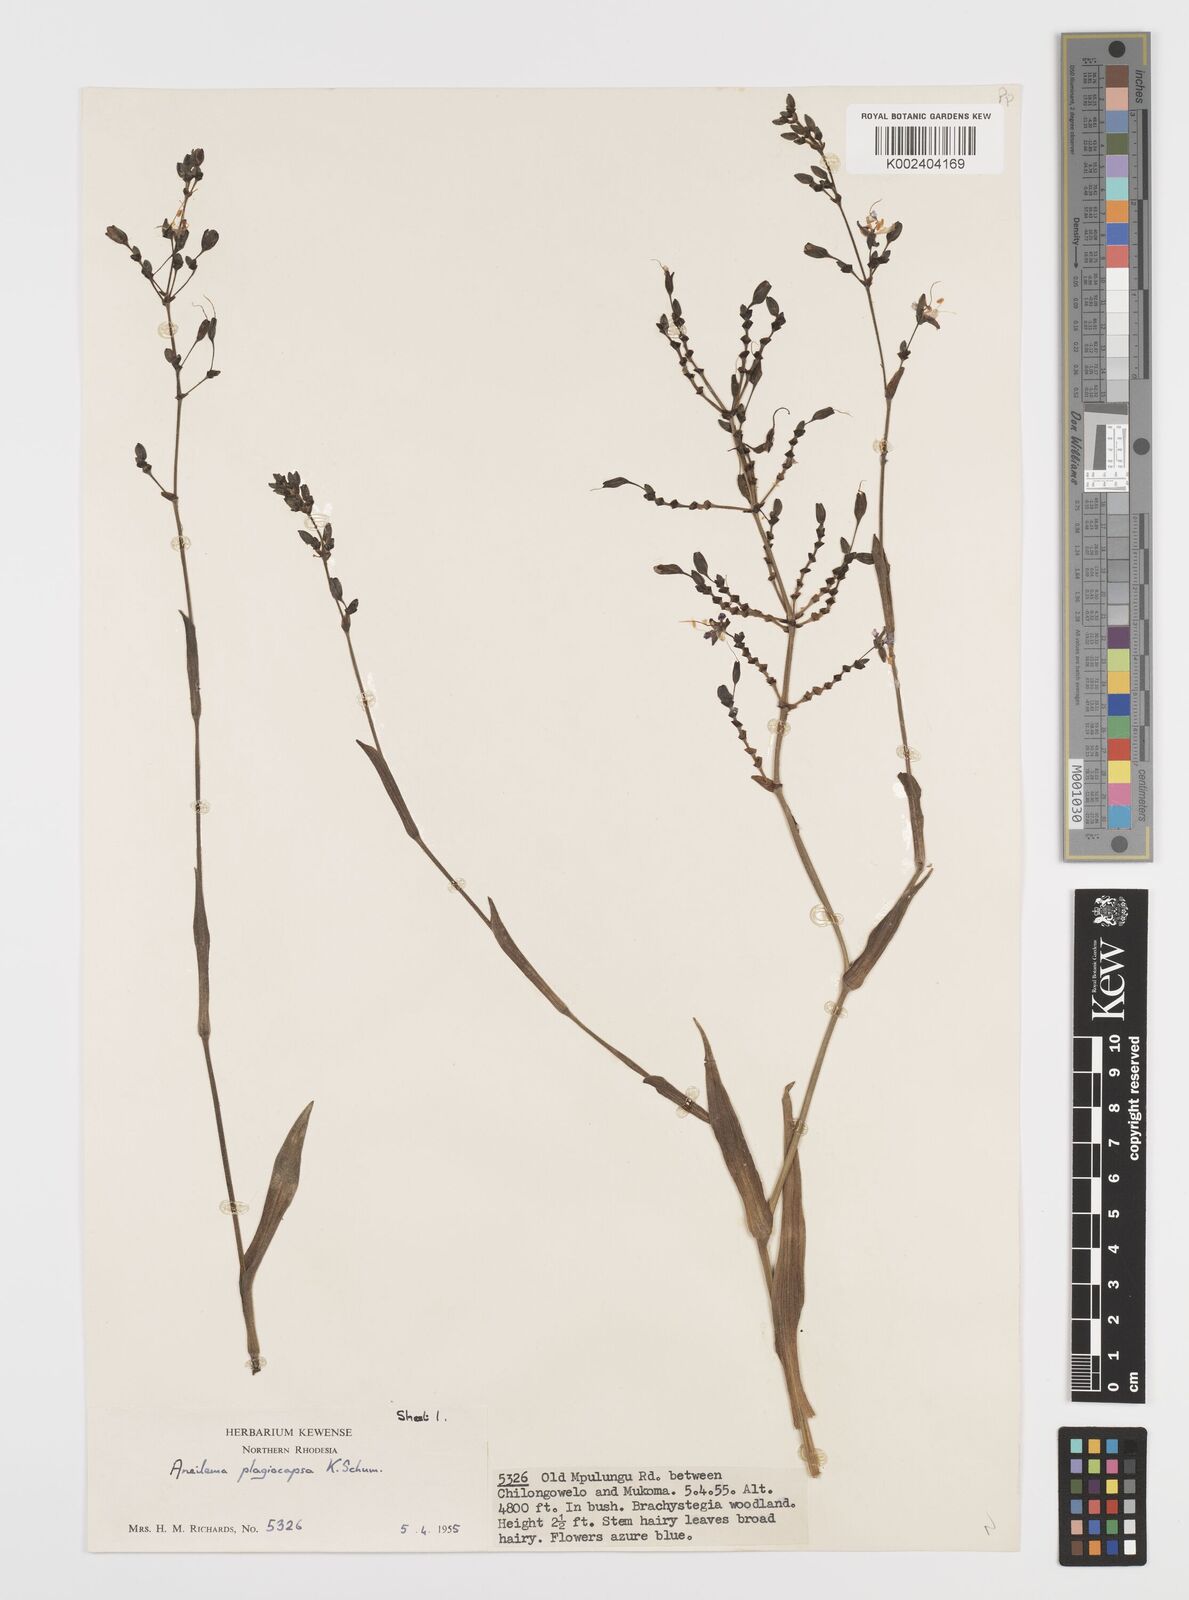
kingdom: Plantae
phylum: Tracheophyta
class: Liliopsida
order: Commelinales
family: Commelinaceae
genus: Aneilema
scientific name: Aneilema plagiocapsa
